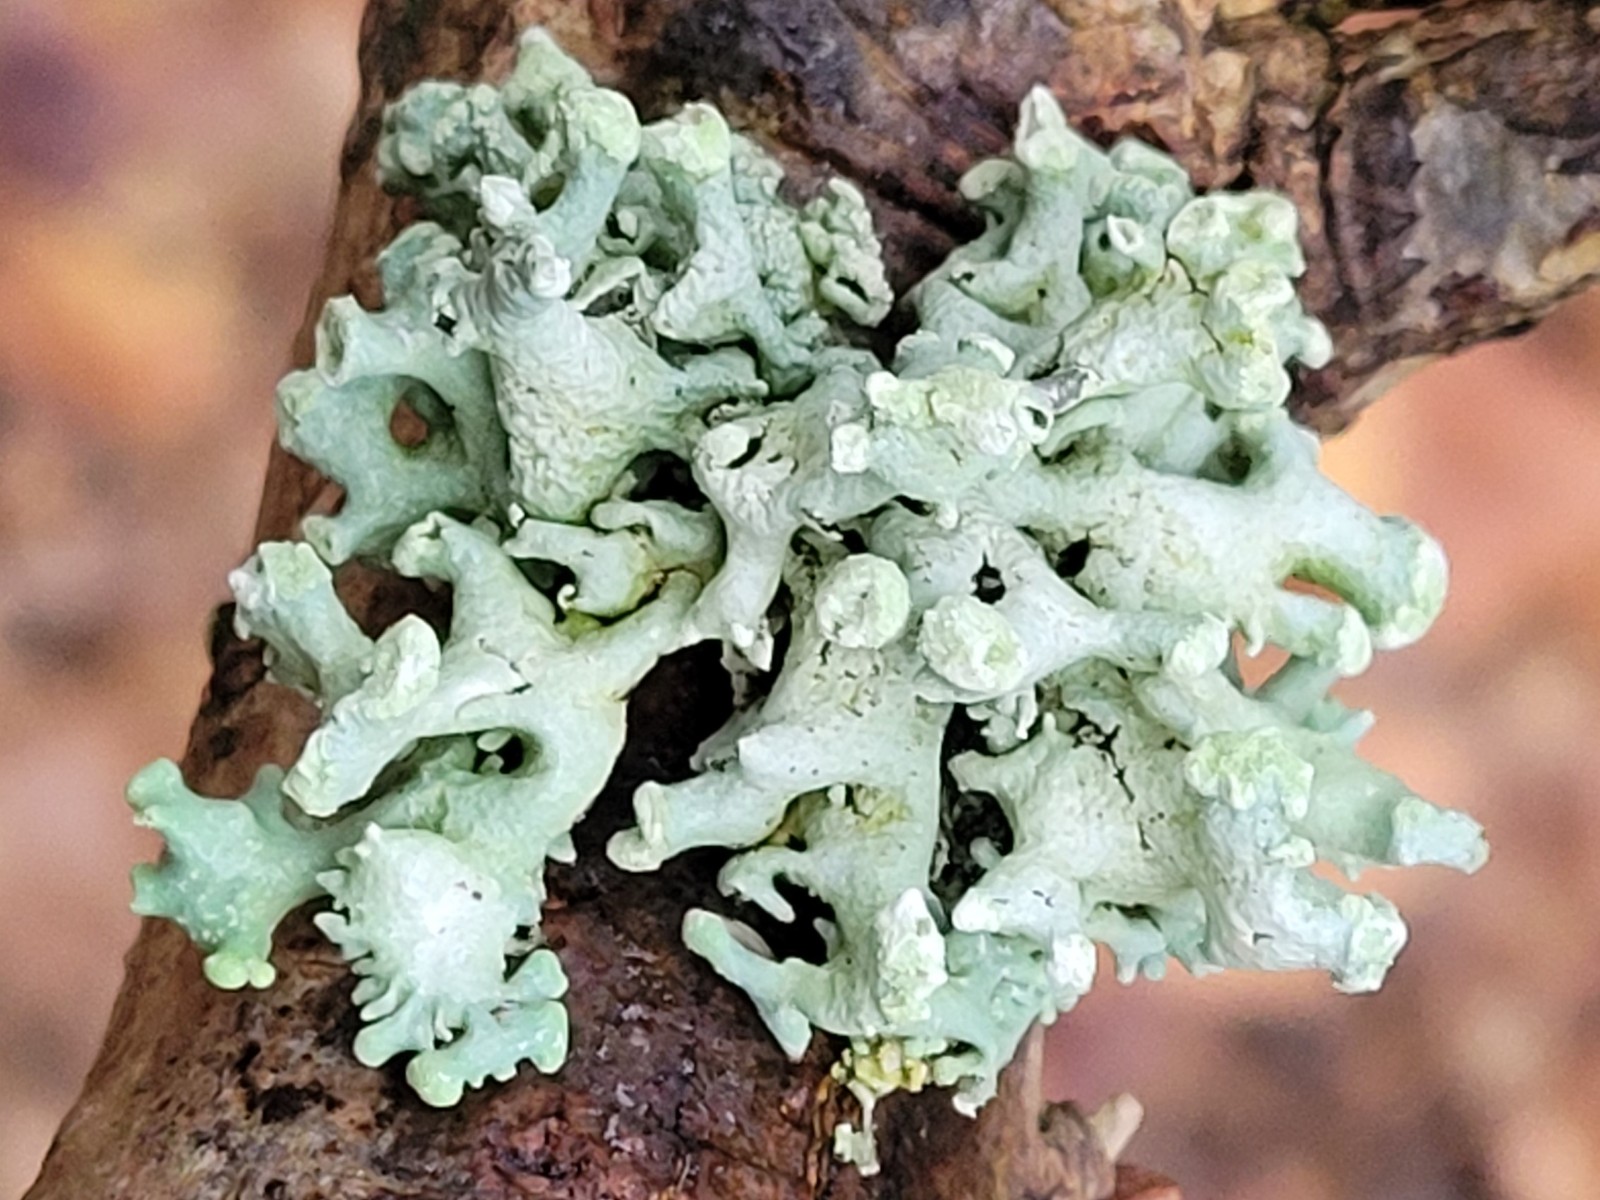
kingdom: Fungi
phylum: Ascomycota
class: Lecanoromycetes
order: Lecanorales
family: Parmeliaceae
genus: Hypogymnia
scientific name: Hypogymnia tubulosa
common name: finger-kvistlav
